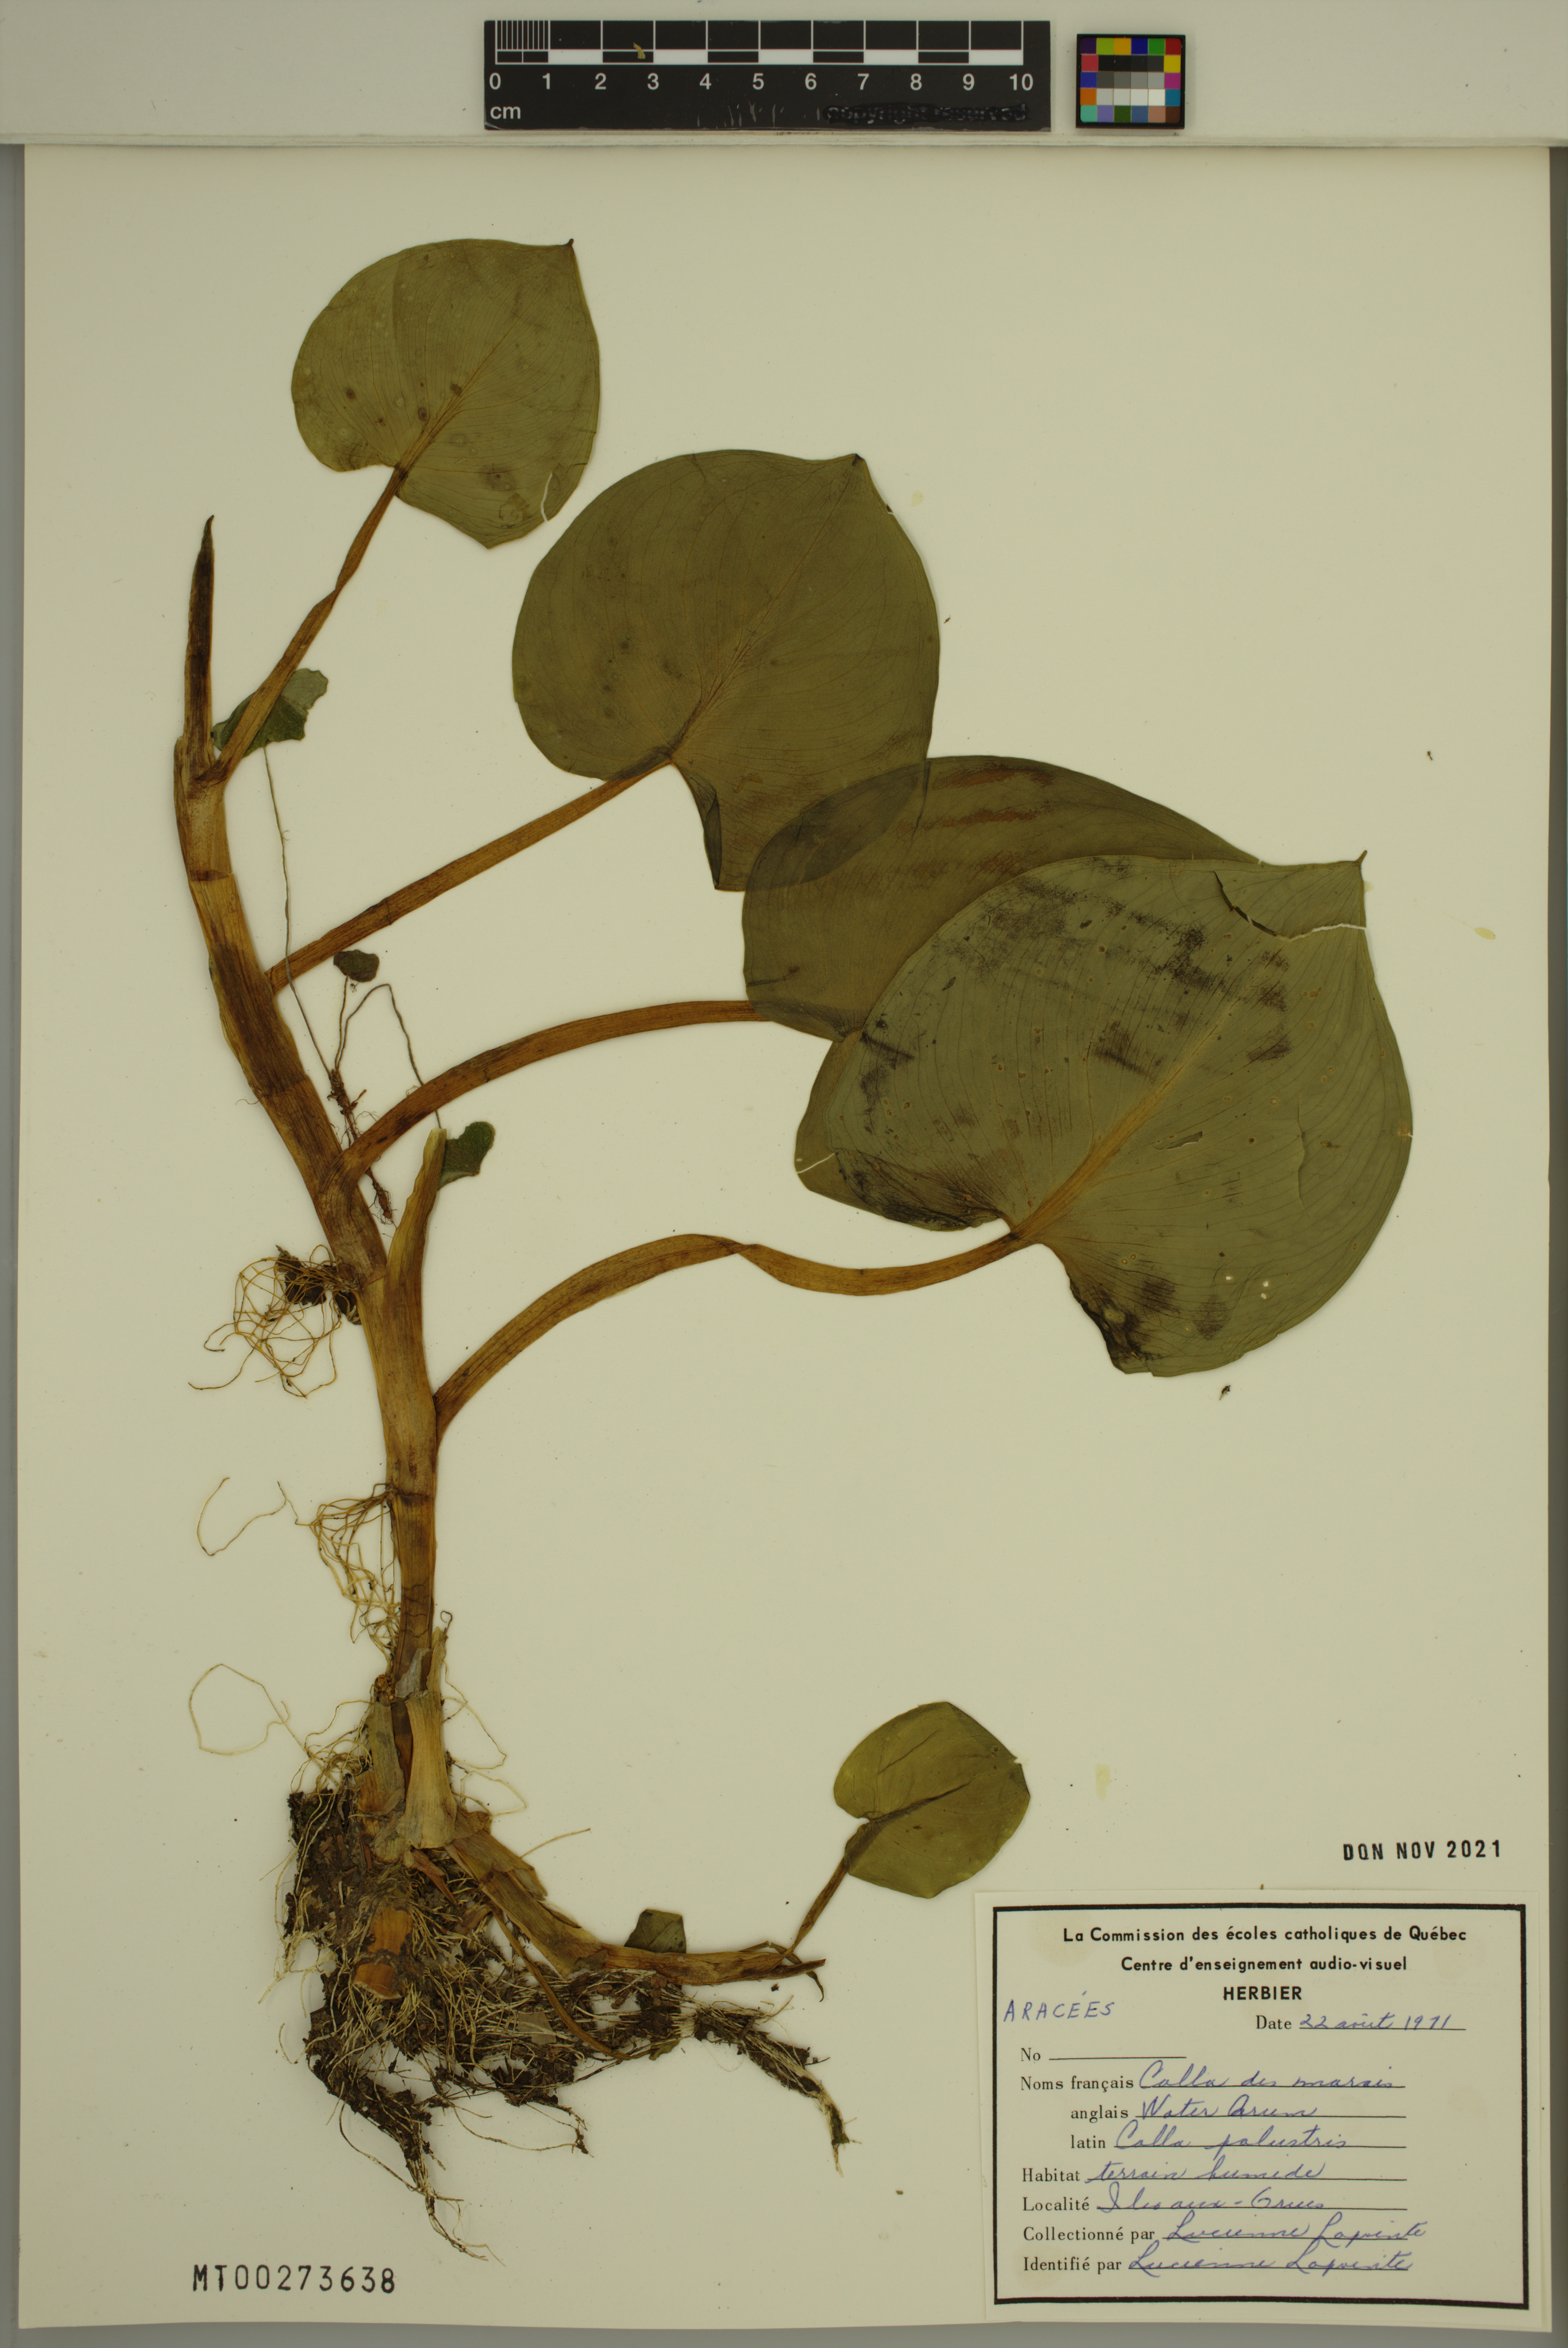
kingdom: Plantae
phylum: Tracheophyta
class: Liliopsida
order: Alismatales
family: Araceae
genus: Calla
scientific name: Calla palustris
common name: Bog arum
